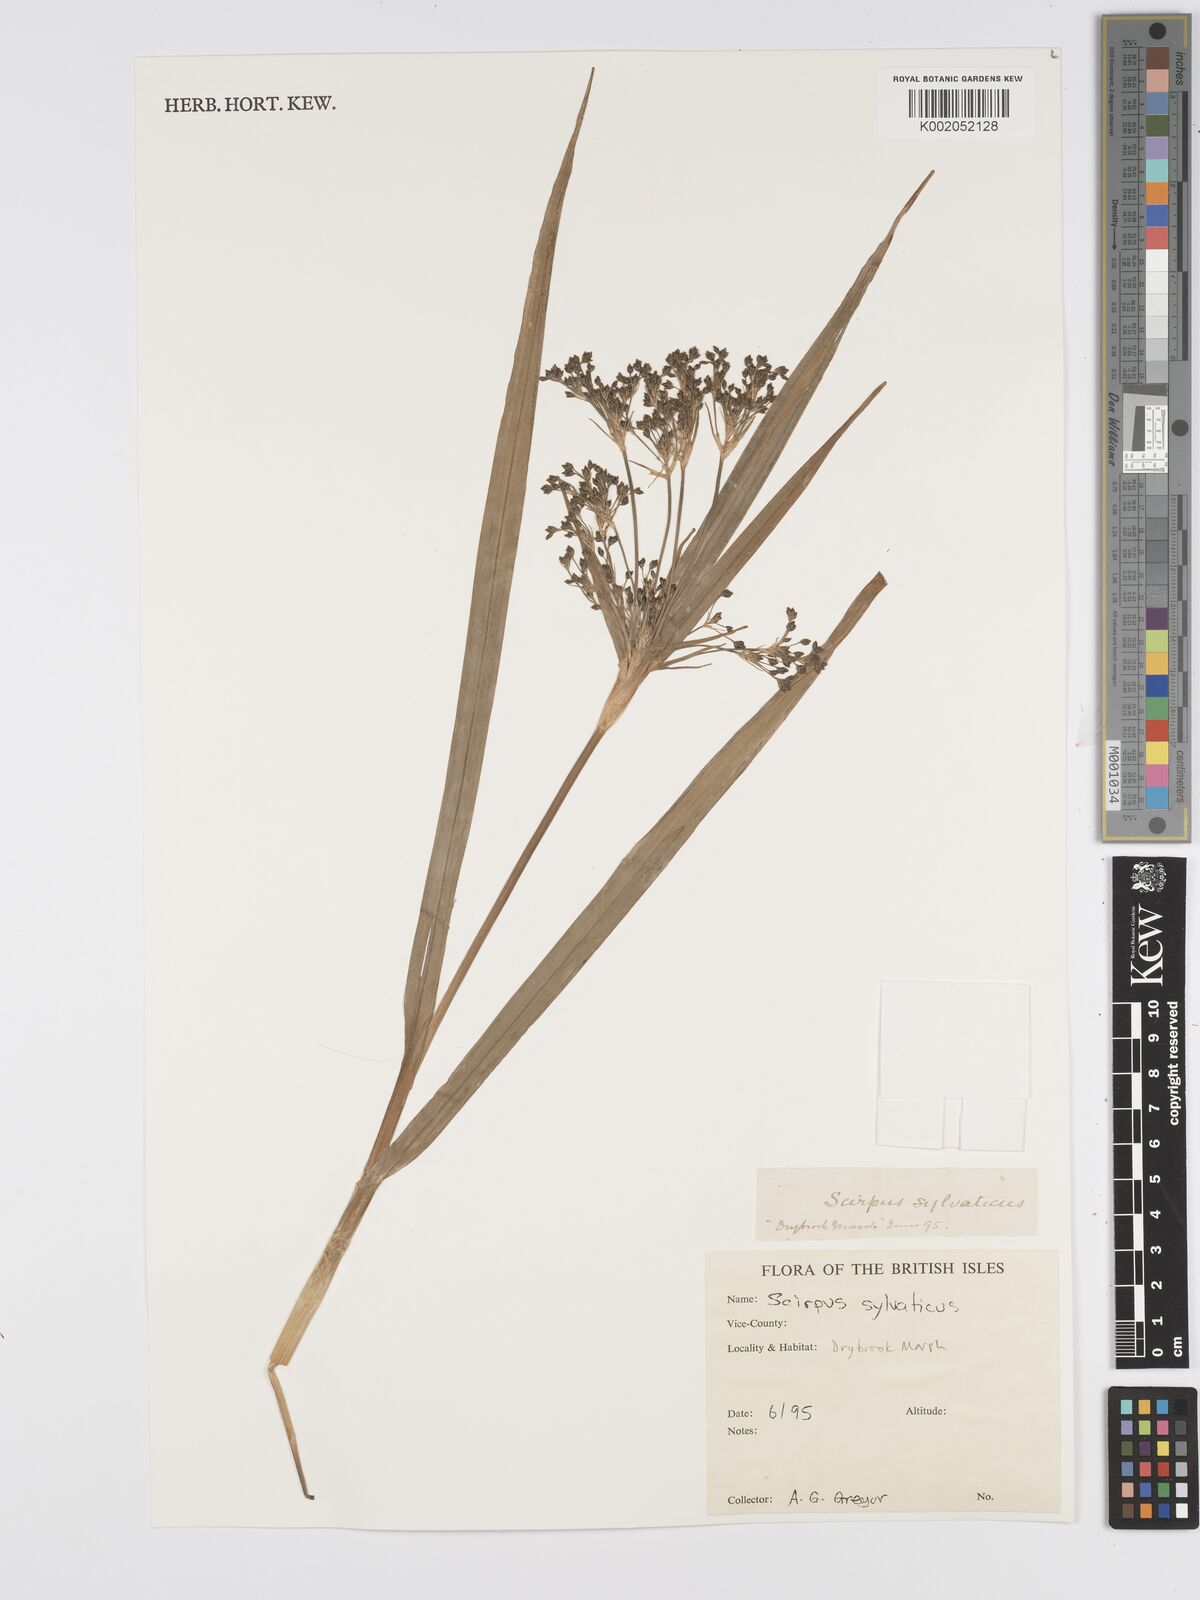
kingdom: Plantae
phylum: Tracheophyta
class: Liliopsida
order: Poales
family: Cyperaceae
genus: Scirpus
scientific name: Scirpus sylvaticus
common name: Wood club-rush
